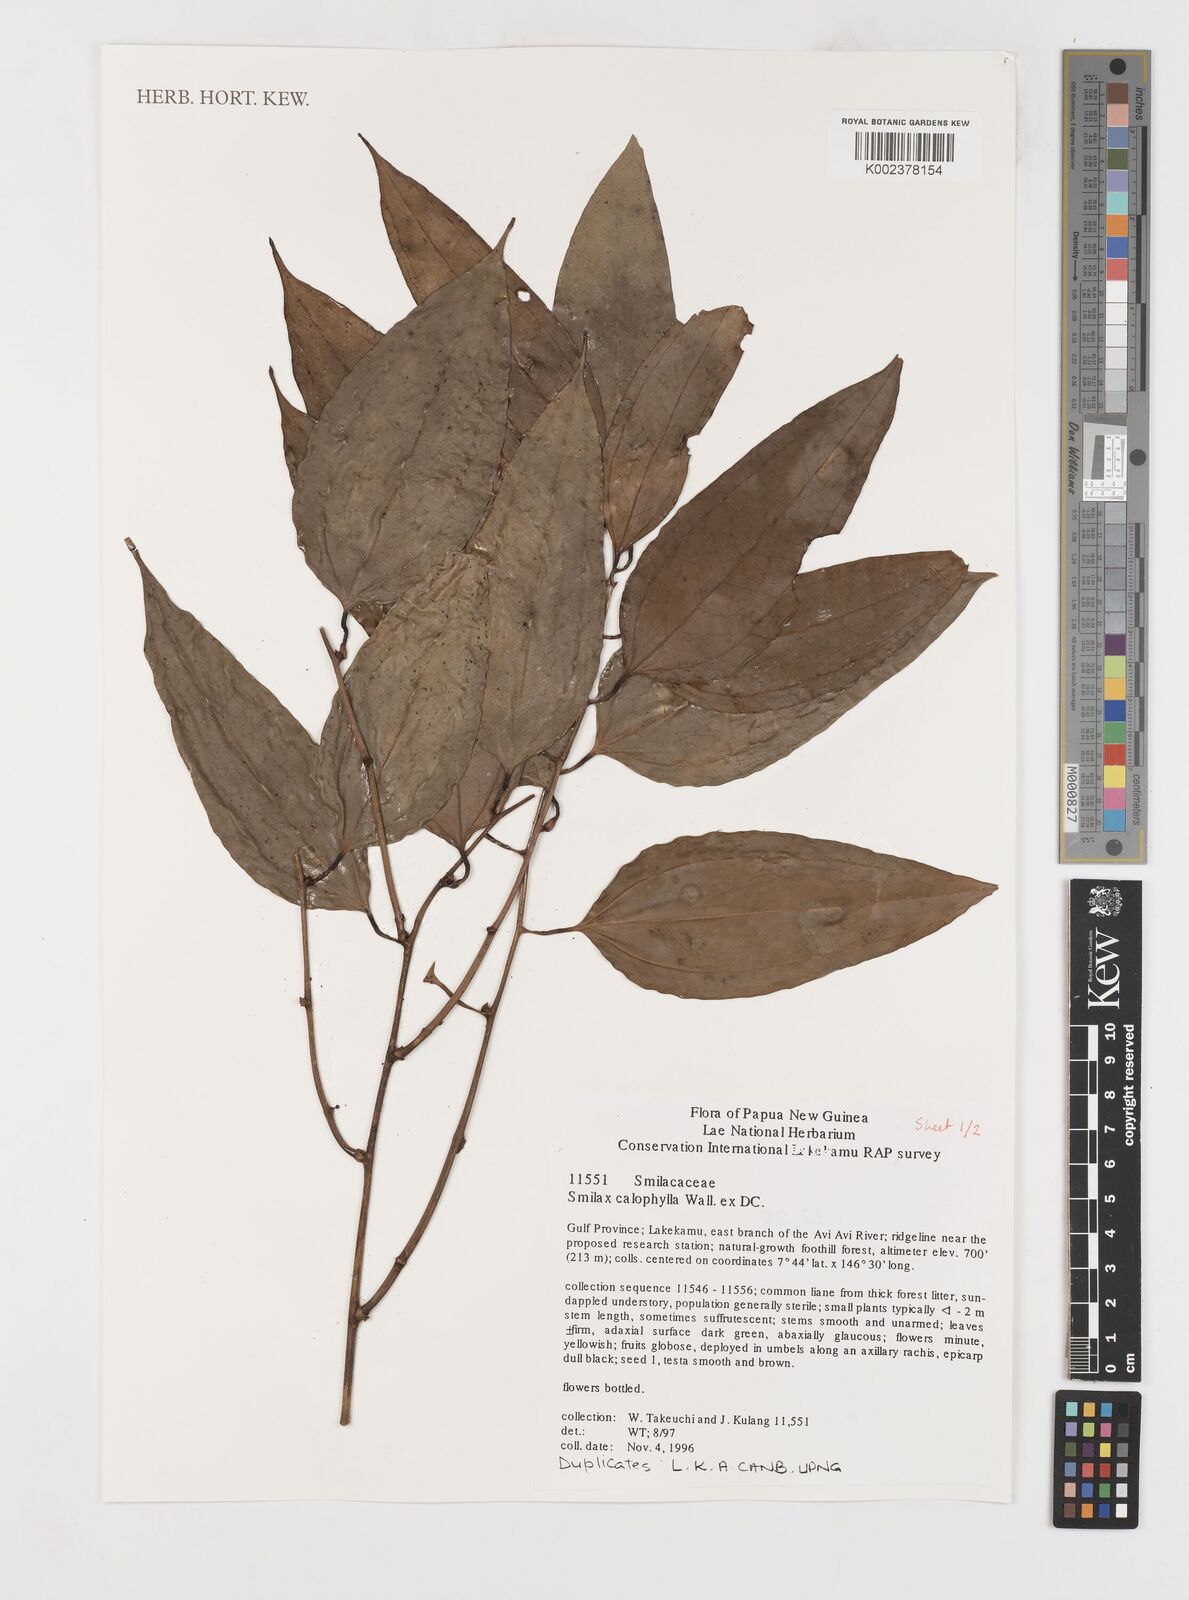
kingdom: Plantae
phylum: Tracheophyta
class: Liliopsida
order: Liliales
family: Smilacaceae
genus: Smilax
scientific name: Smilax calophylla
